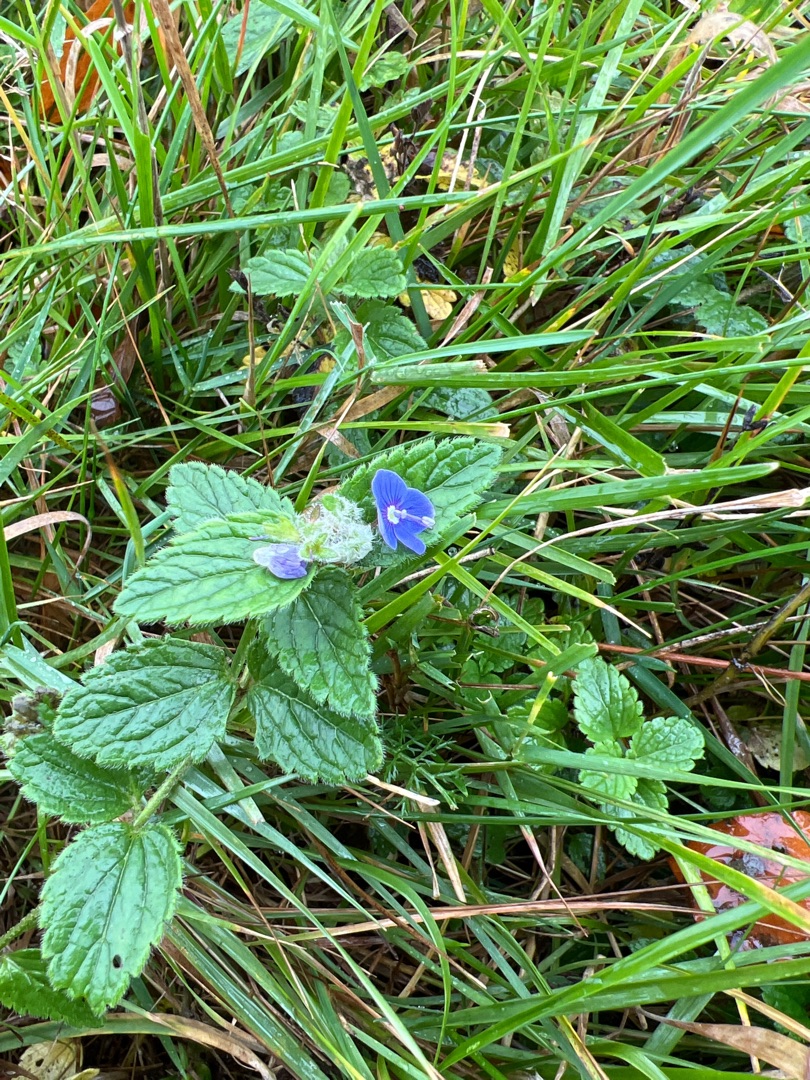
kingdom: Plantae
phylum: Tracheophyta
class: Magnoliopsida
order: Lamiales
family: Plantaginaceae
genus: Veronica
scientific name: Veronica chamaedrys
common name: Tveskægget ærenpris
